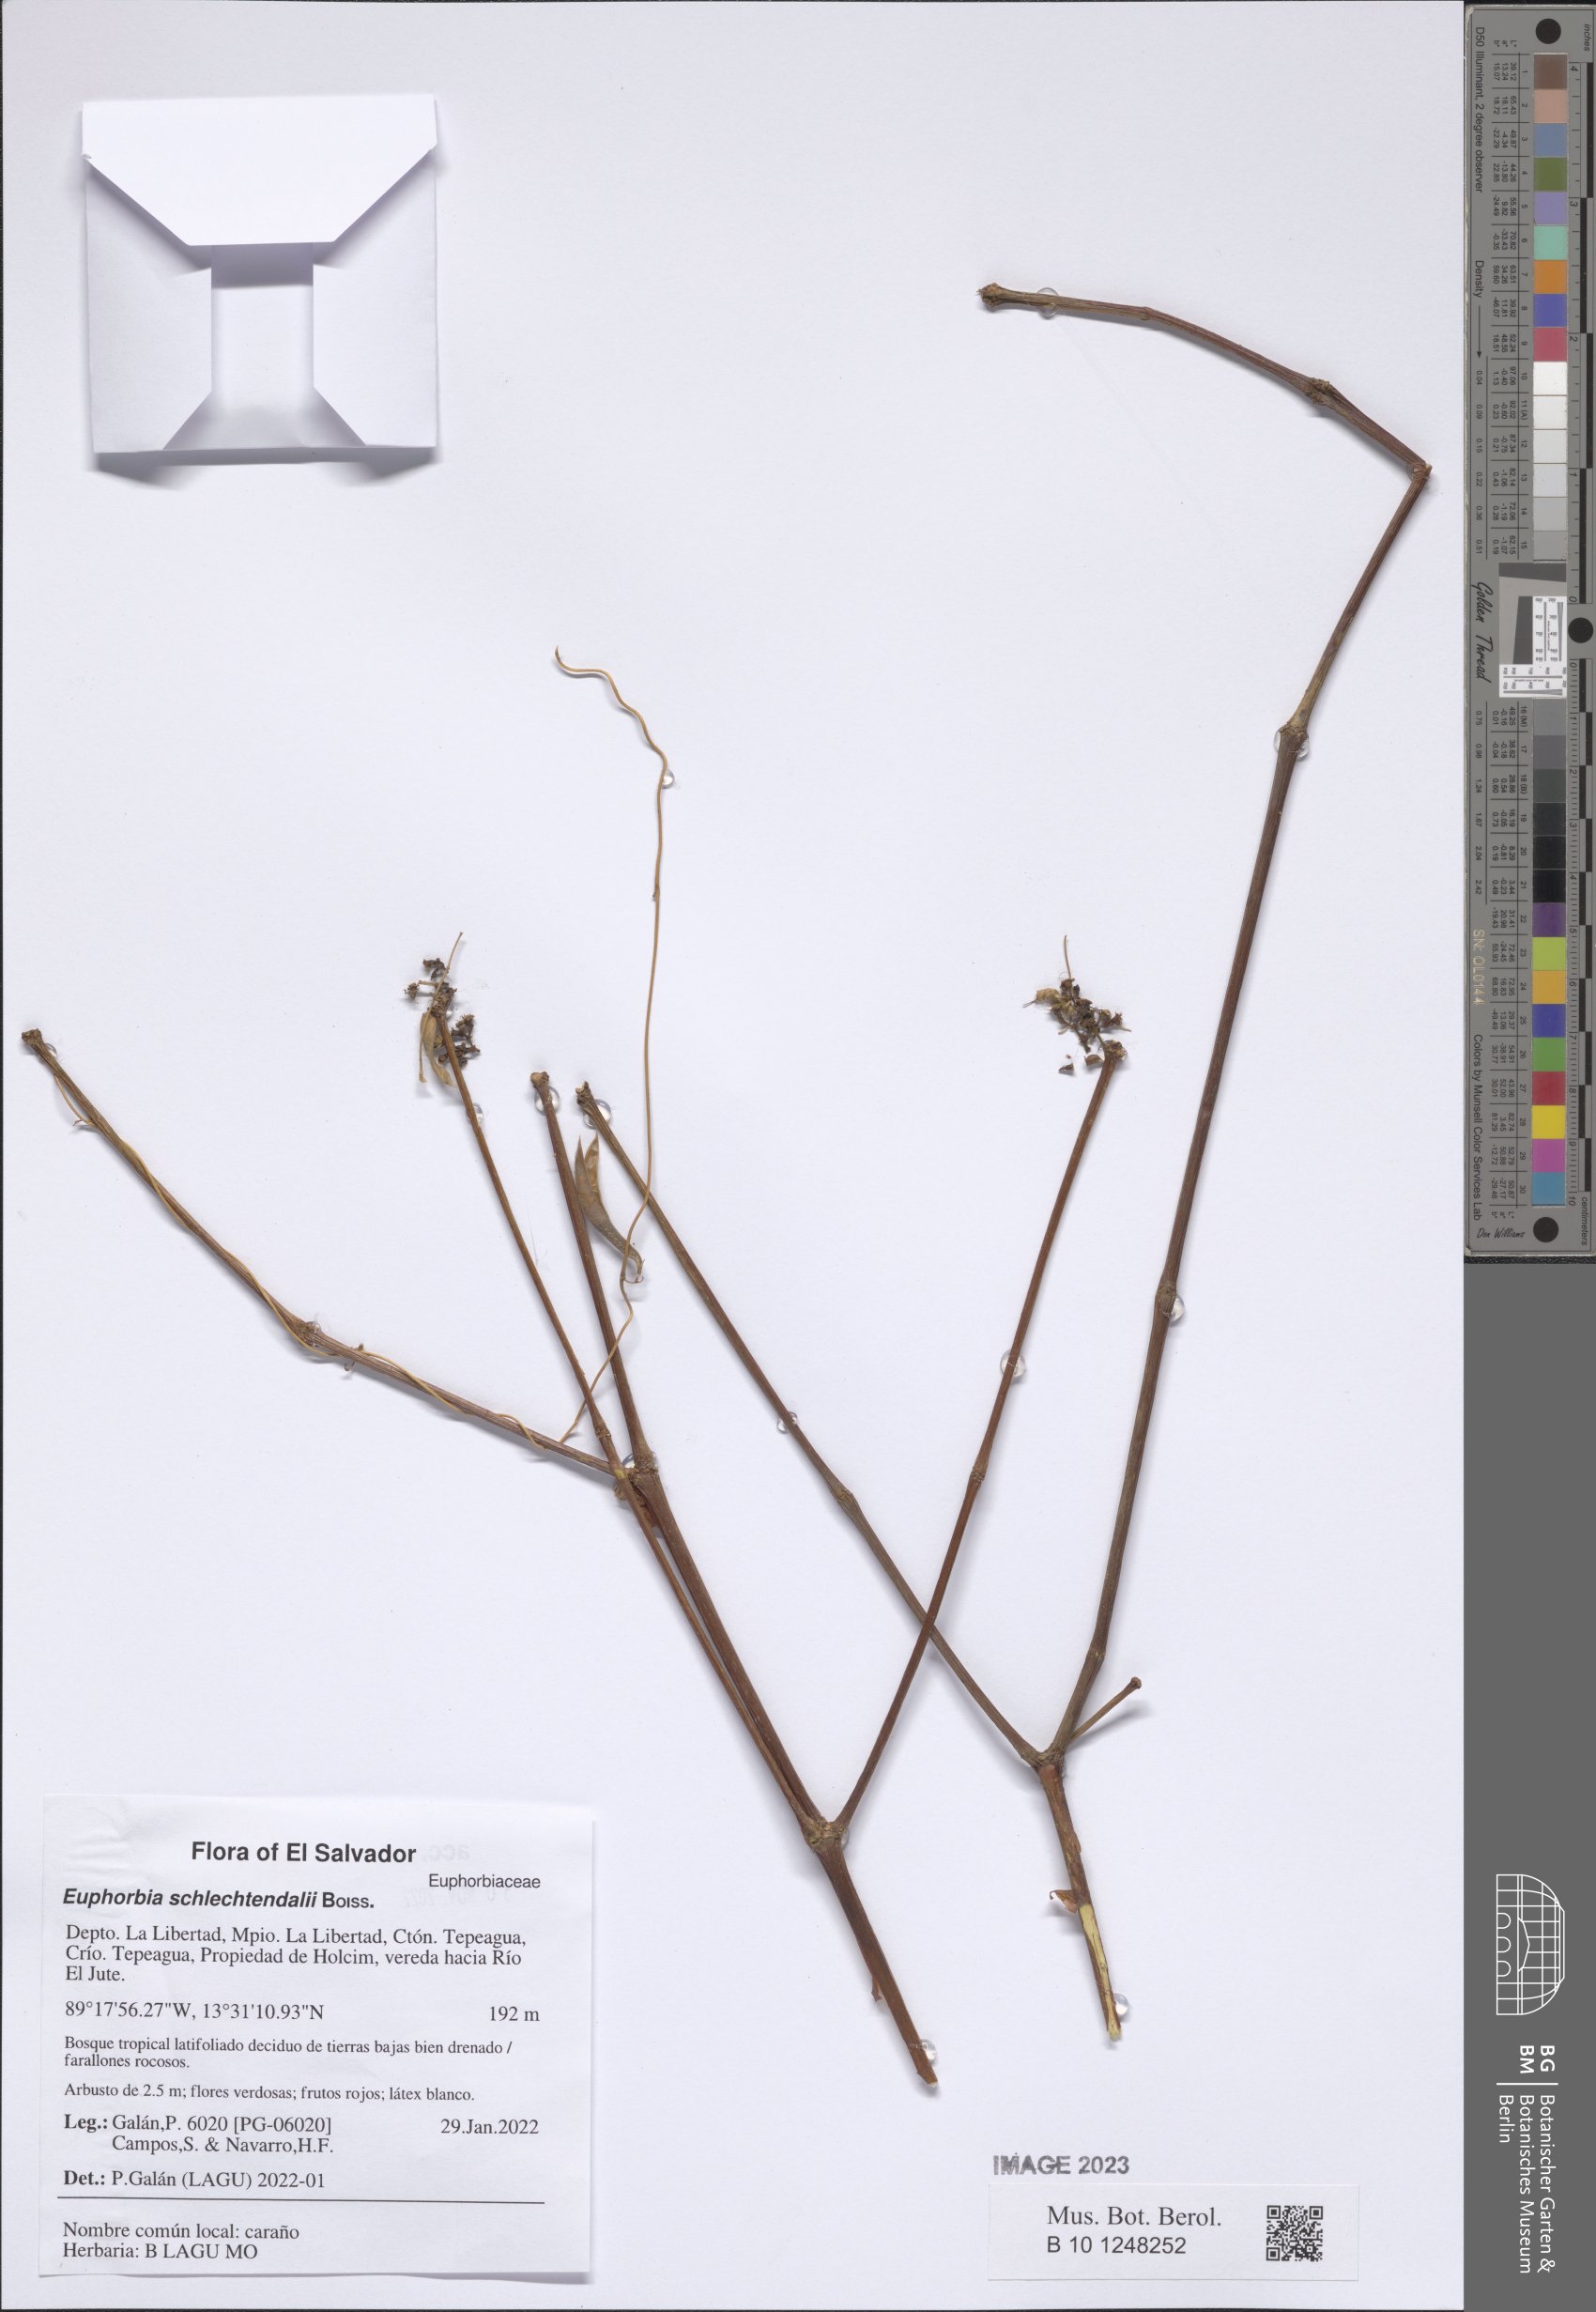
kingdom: Plantae
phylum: Tracheophyta
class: Magnoliopsida
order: Malpighiales
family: Euphorbiaceae
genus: Euphorbia
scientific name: Euphorbia schlechtendalii
